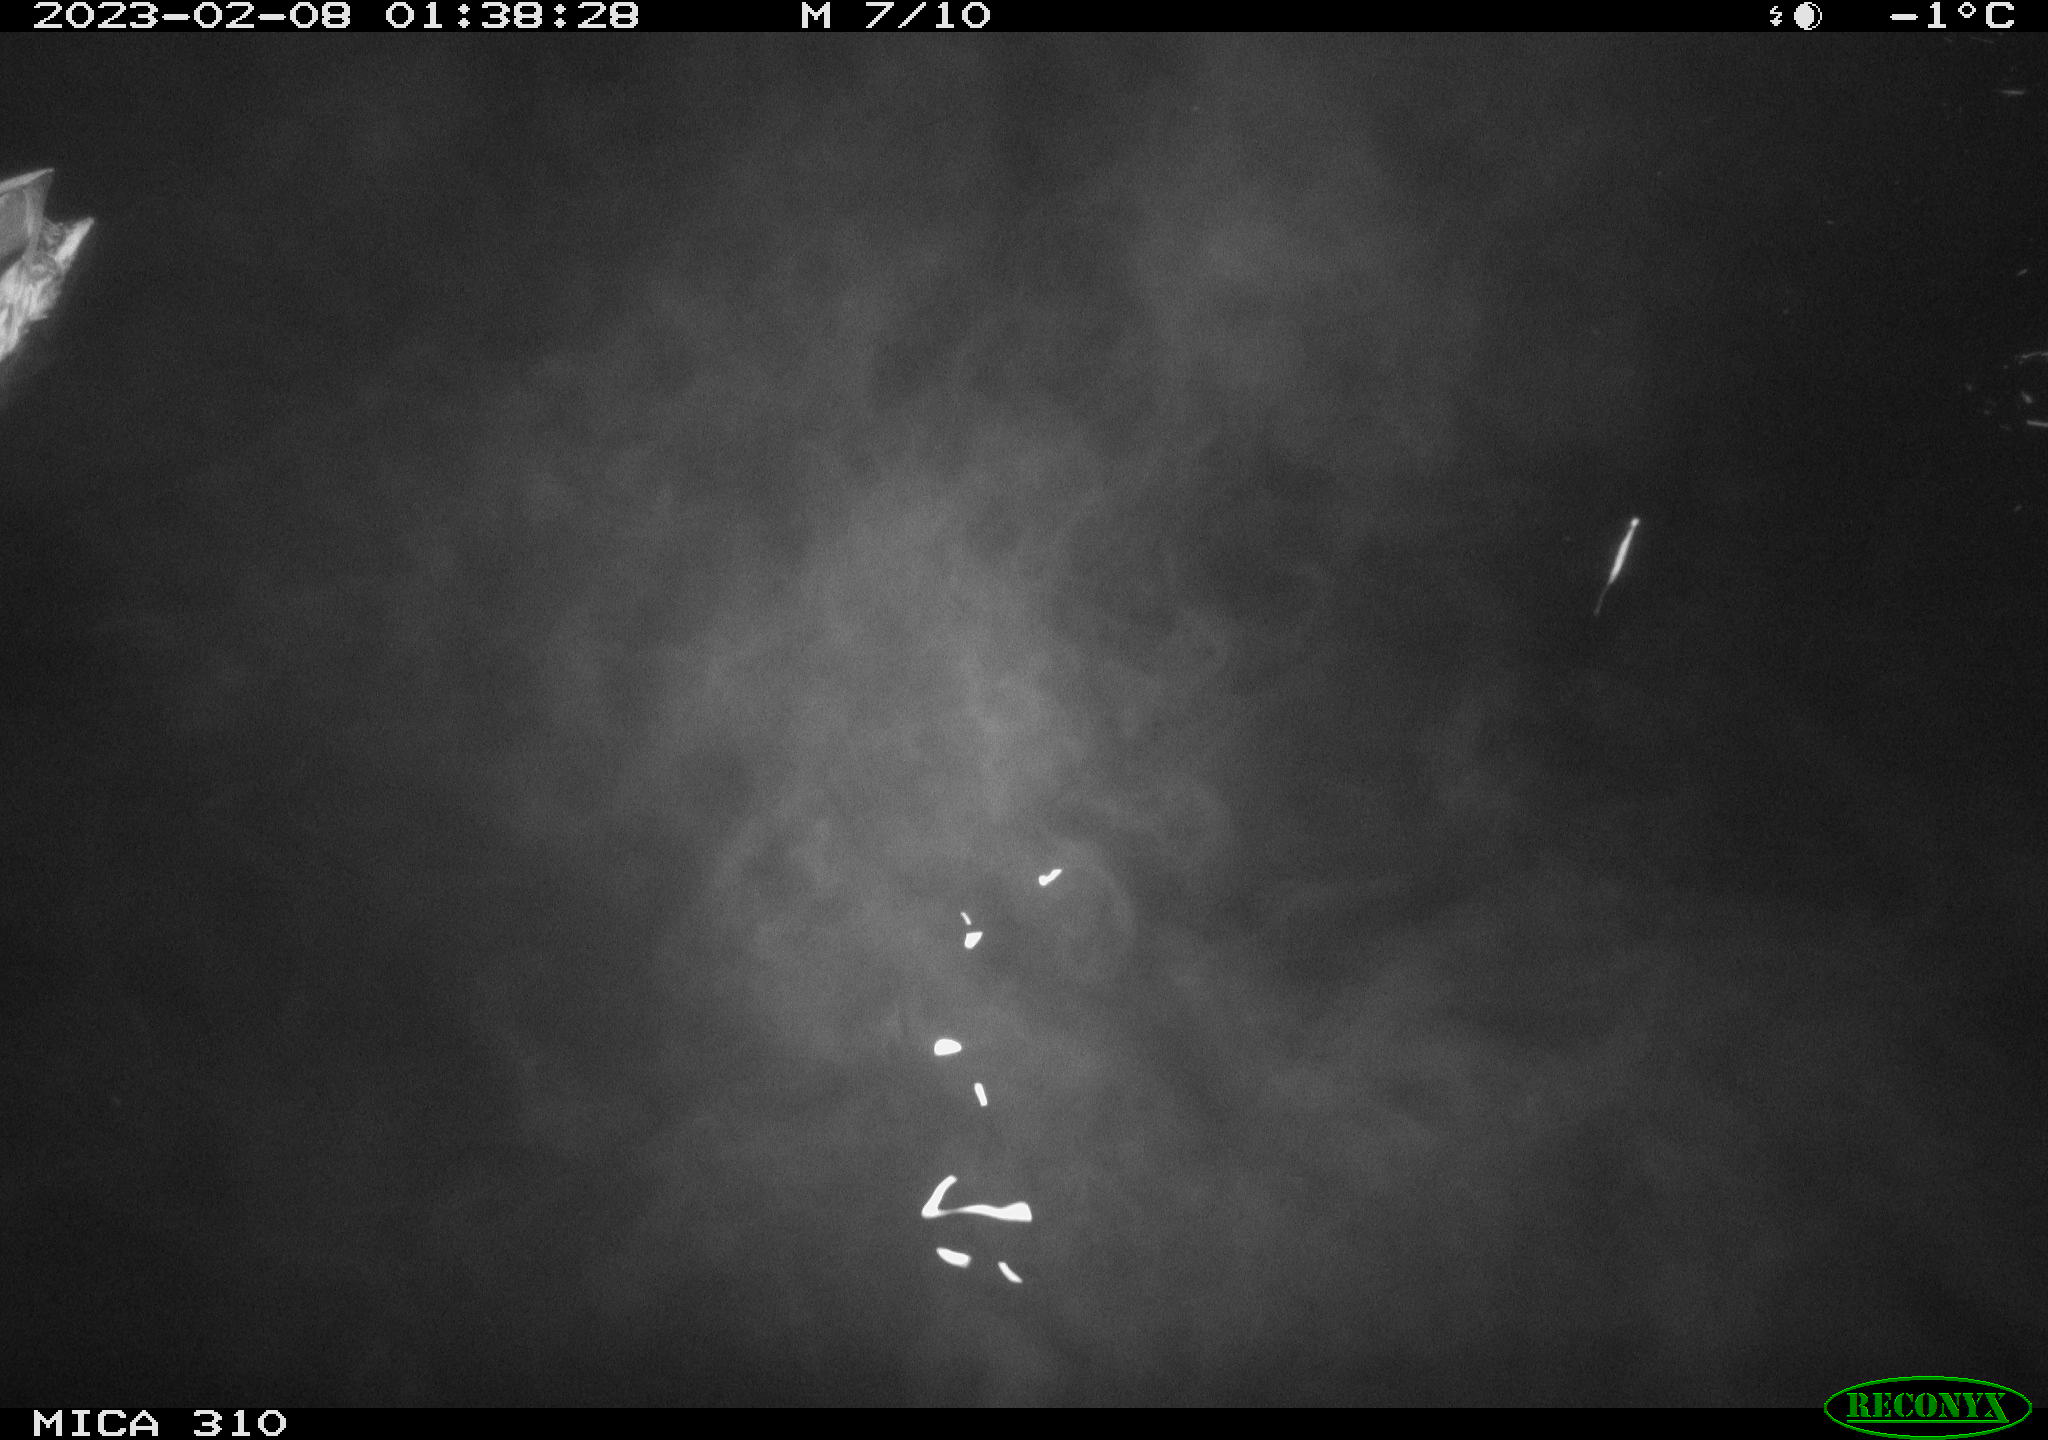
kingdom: Animalia
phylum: Chordata
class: Aves
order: Anseriformes
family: Anatidae
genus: Anas
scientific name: Anas
